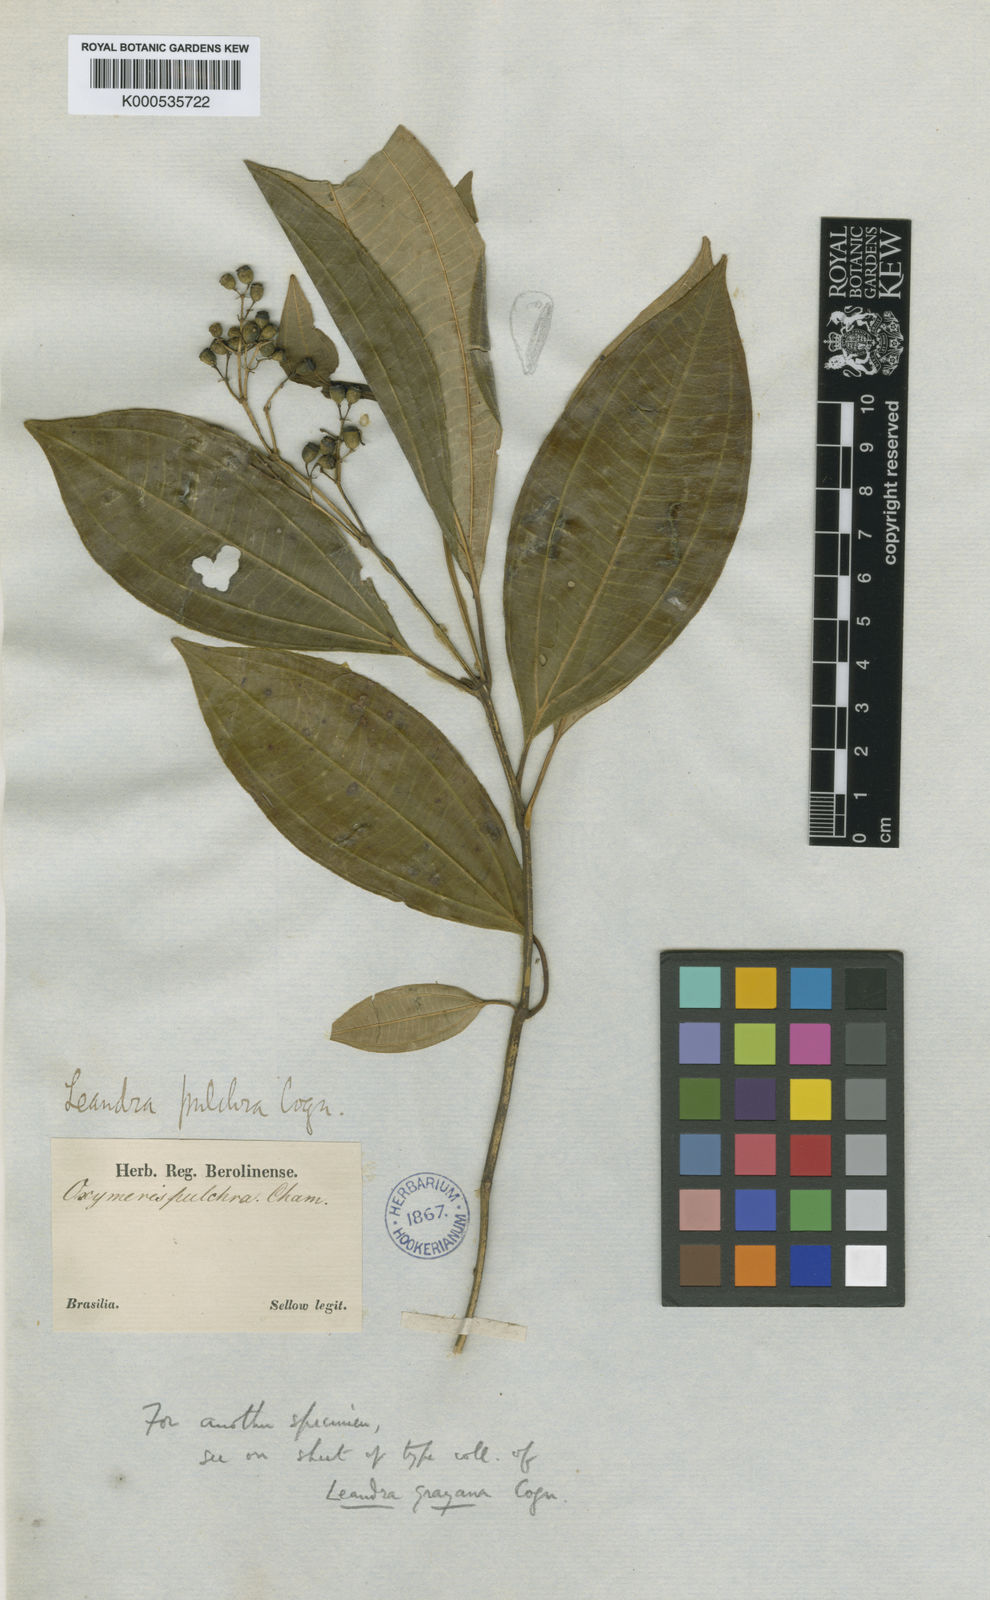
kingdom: Plantae
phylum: Tracheophyta
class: Magnoliopsida
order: Myrtales
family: Melastomataceae
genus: Miconia
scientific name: Miconia leagrayana
